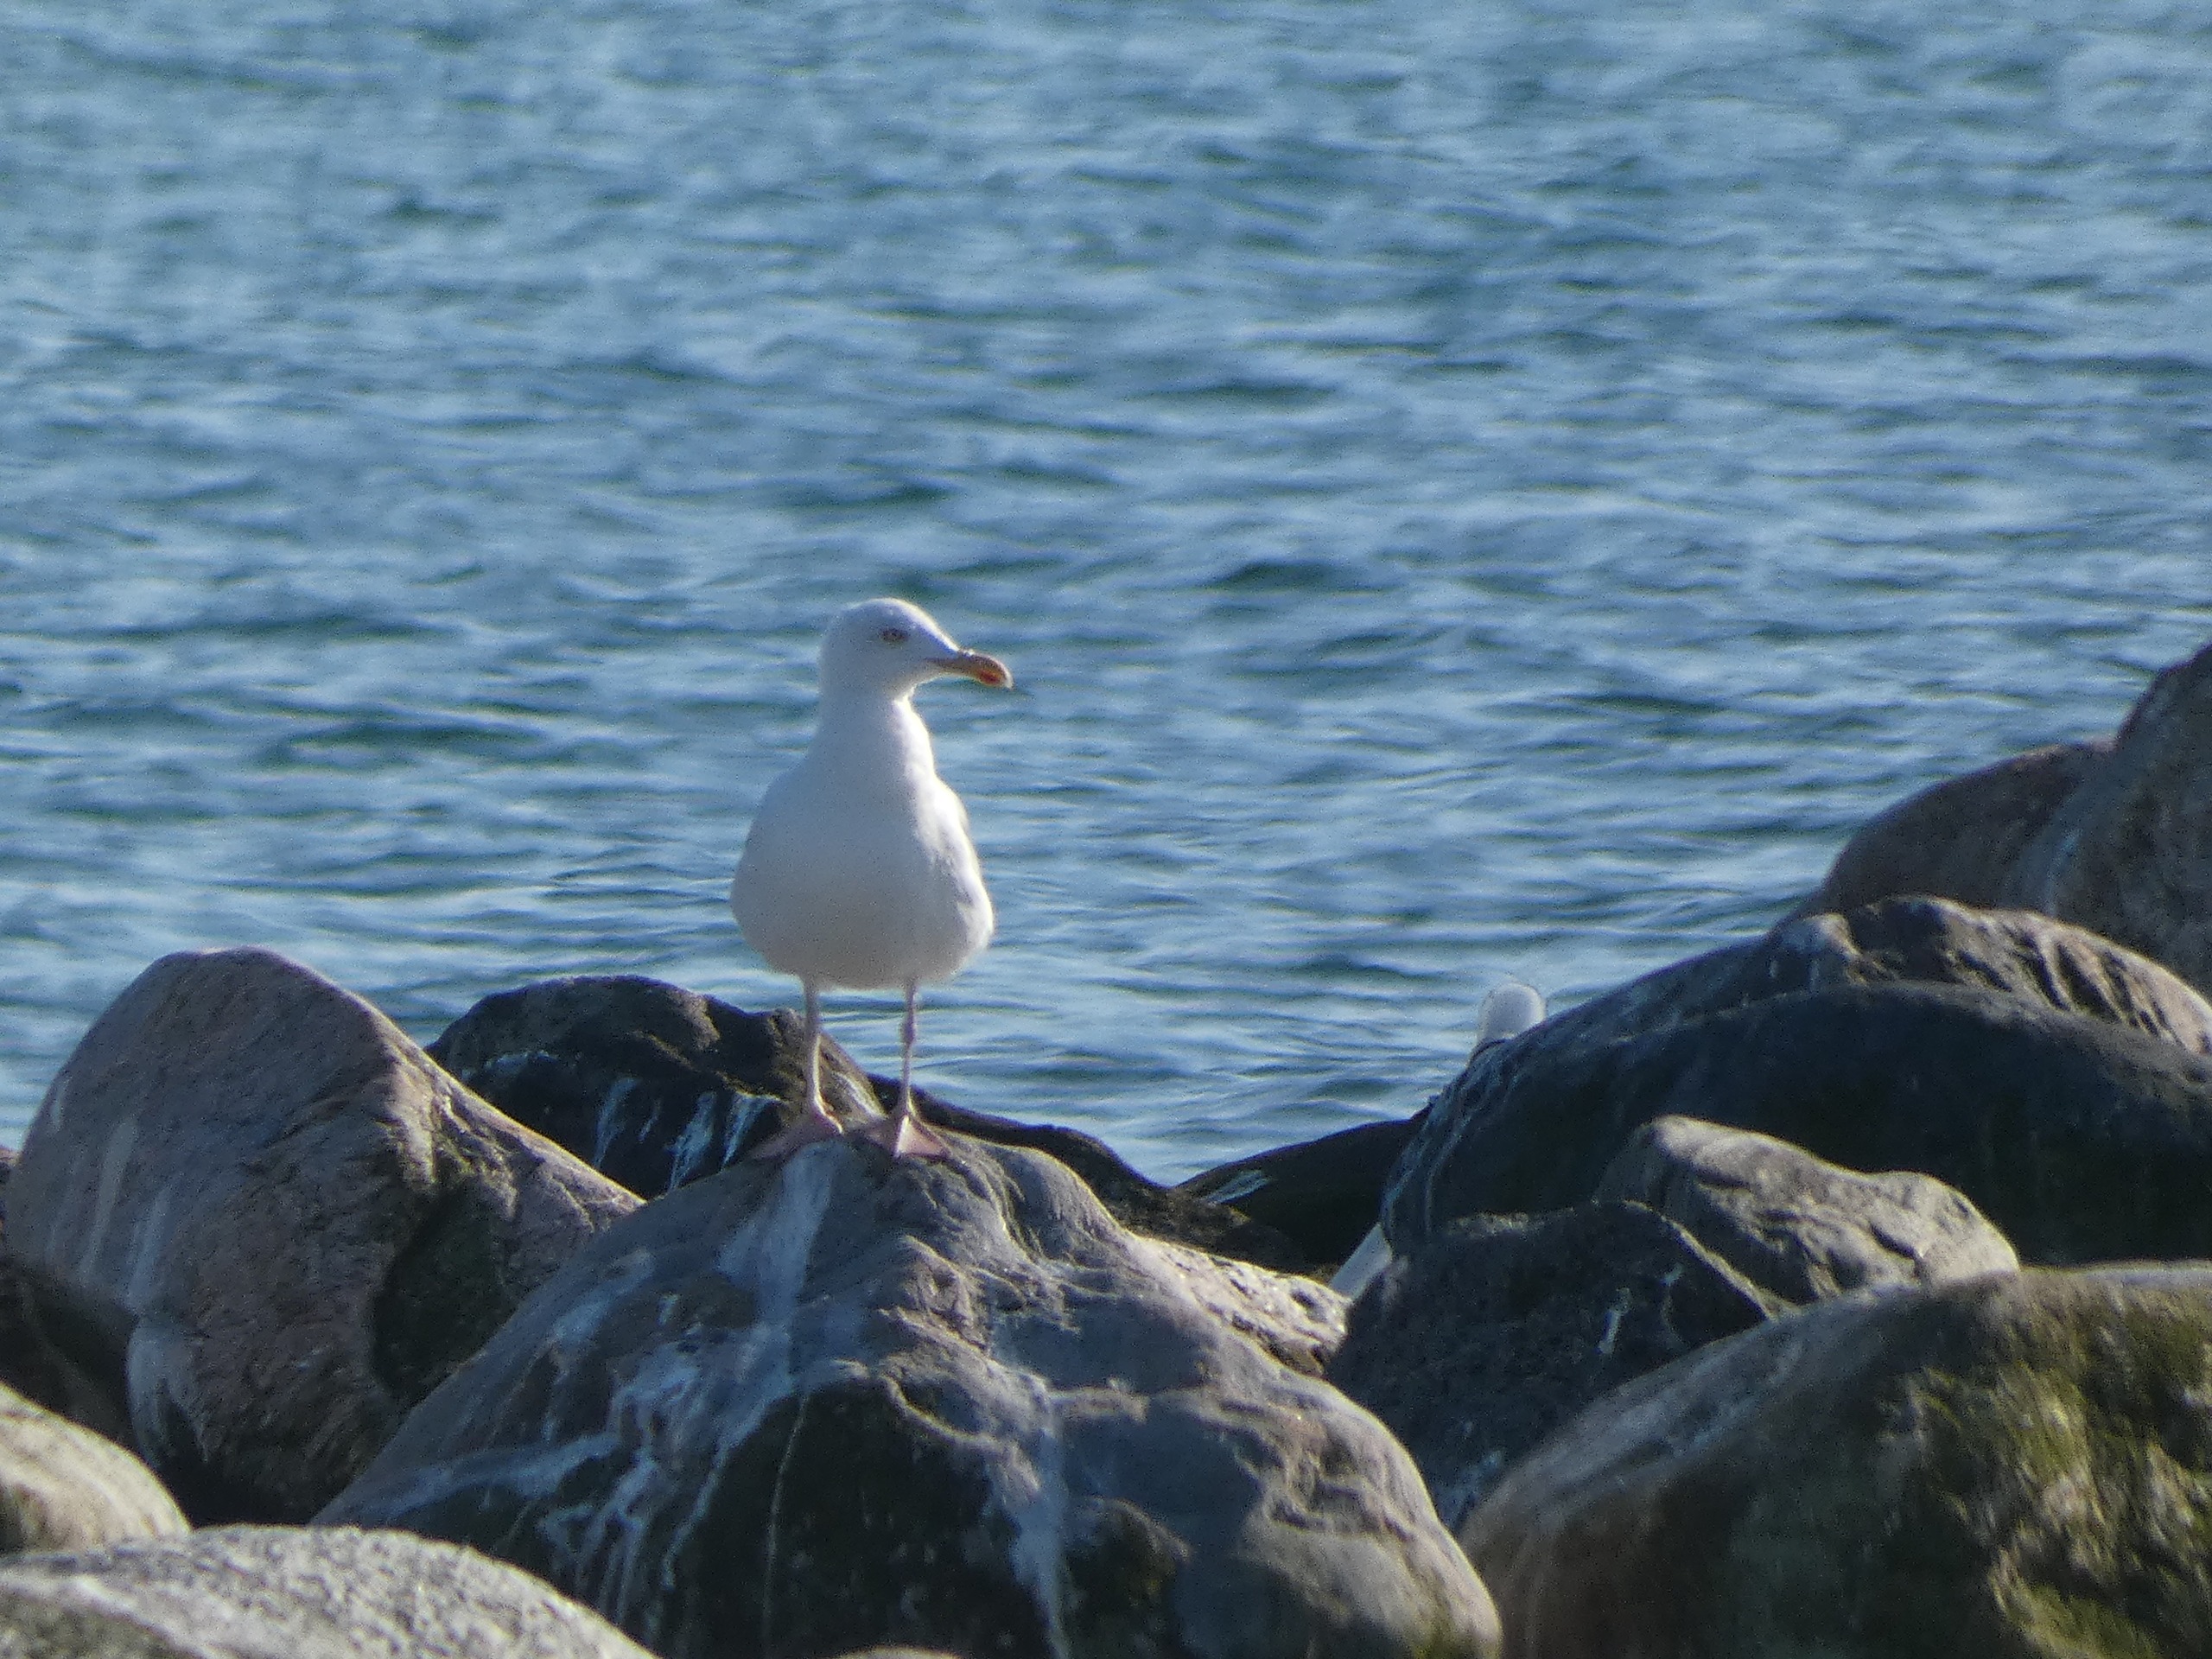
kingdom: Animalia
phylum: Chordata
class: Aves
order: Charadriiformes
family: Laridae
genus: Larus
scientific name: Larus argentatus
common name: Sølvmåge
